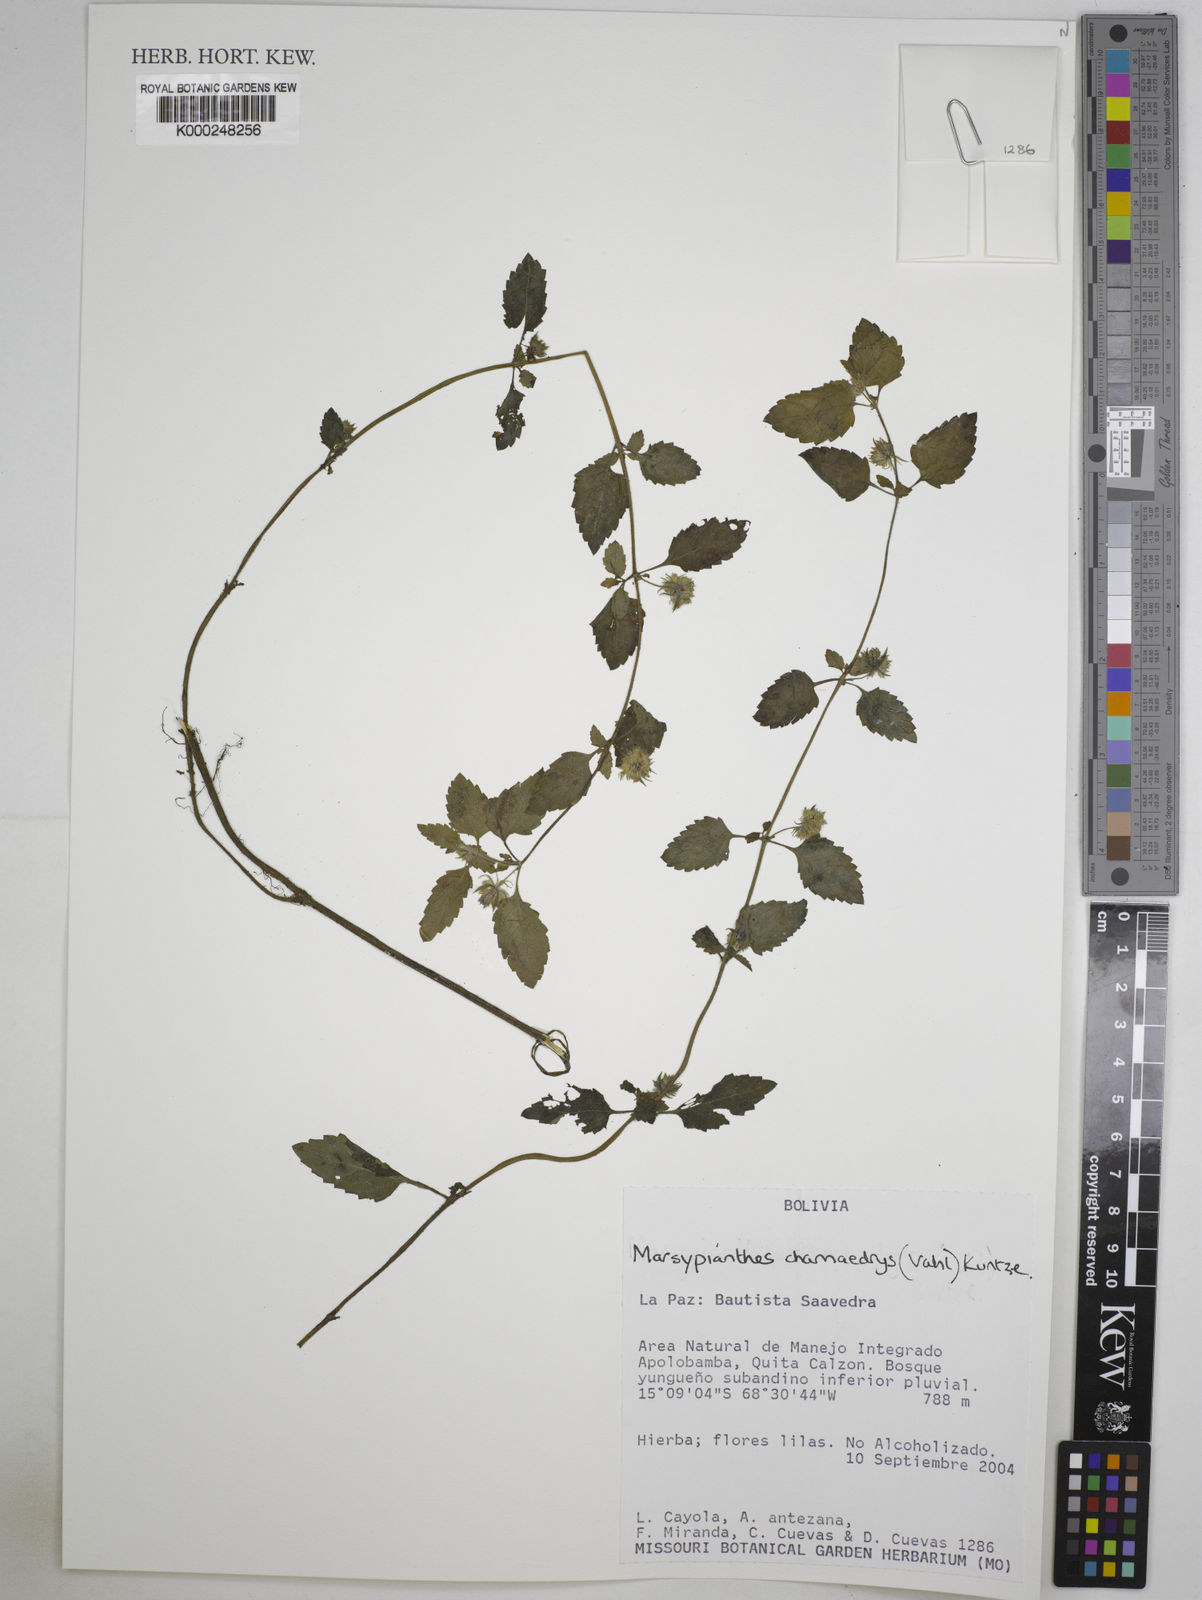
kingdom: Plantae
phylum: Tracheophyta
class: Magnoliopsida
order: Lamiales
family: Lamiaceae
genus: Marsypianthes
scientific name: Marsypianthes chamaedrys
